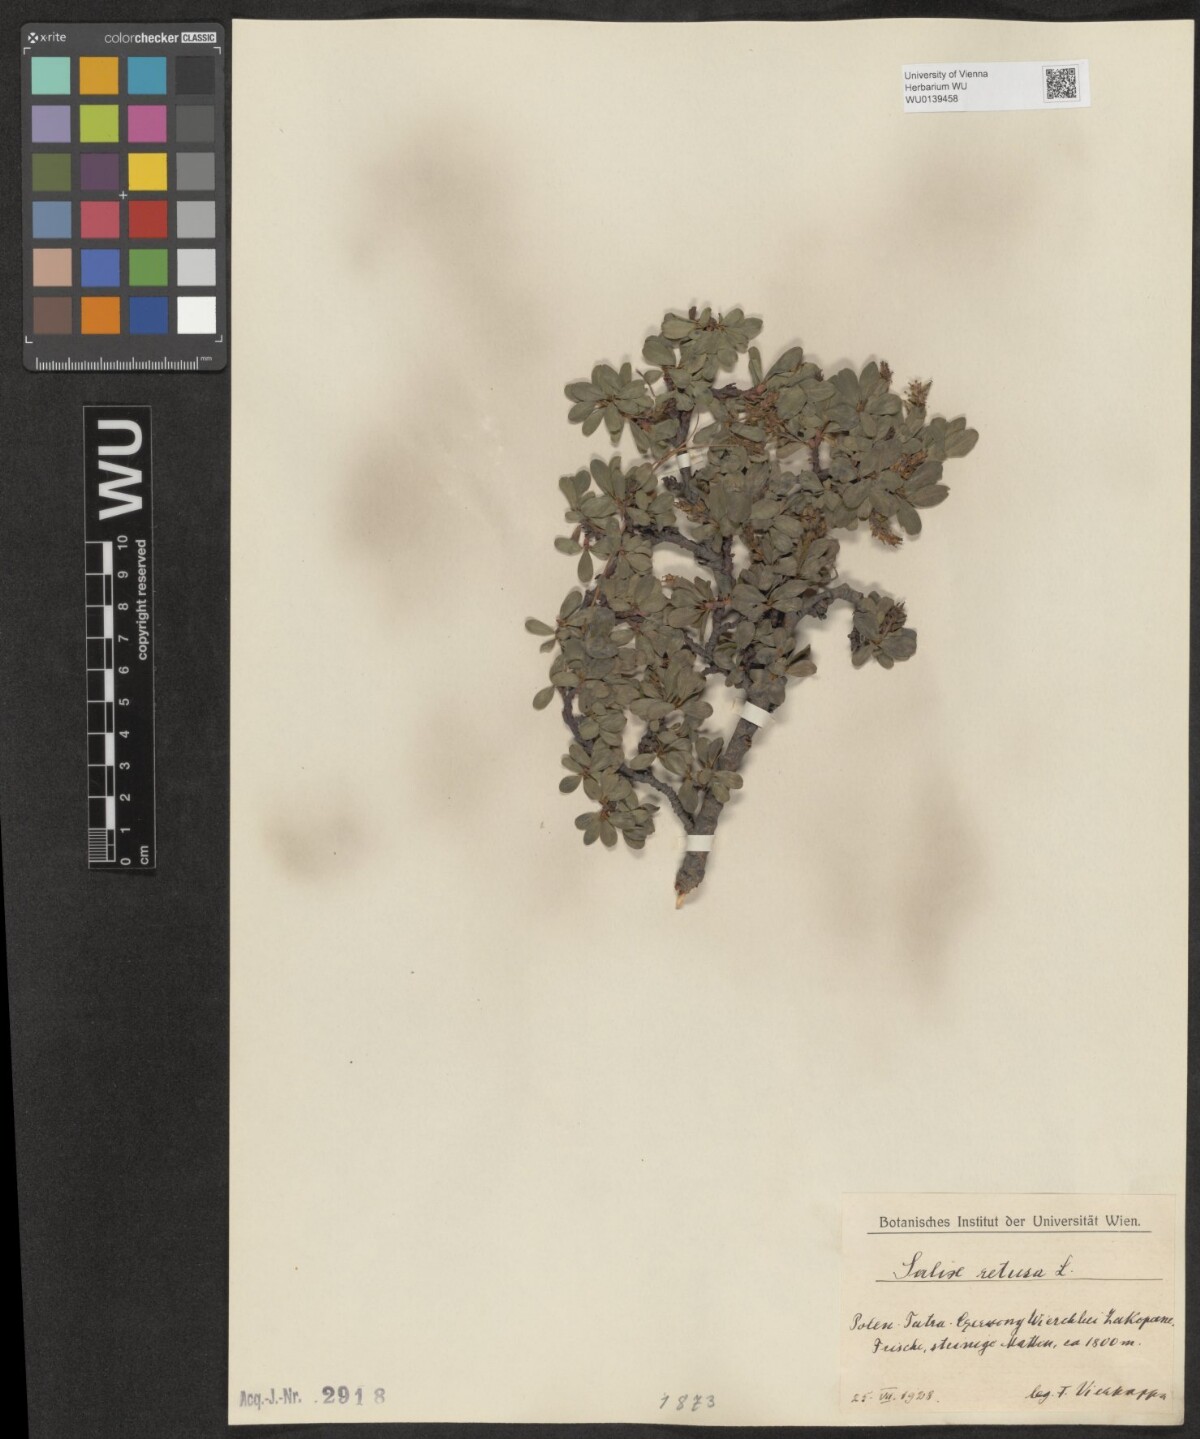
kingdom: Plantae
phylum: Tracheophyta
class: Magnoliopsida
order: Malpighiales
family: Salicaceae
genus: Salix
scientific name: Salix retusa
